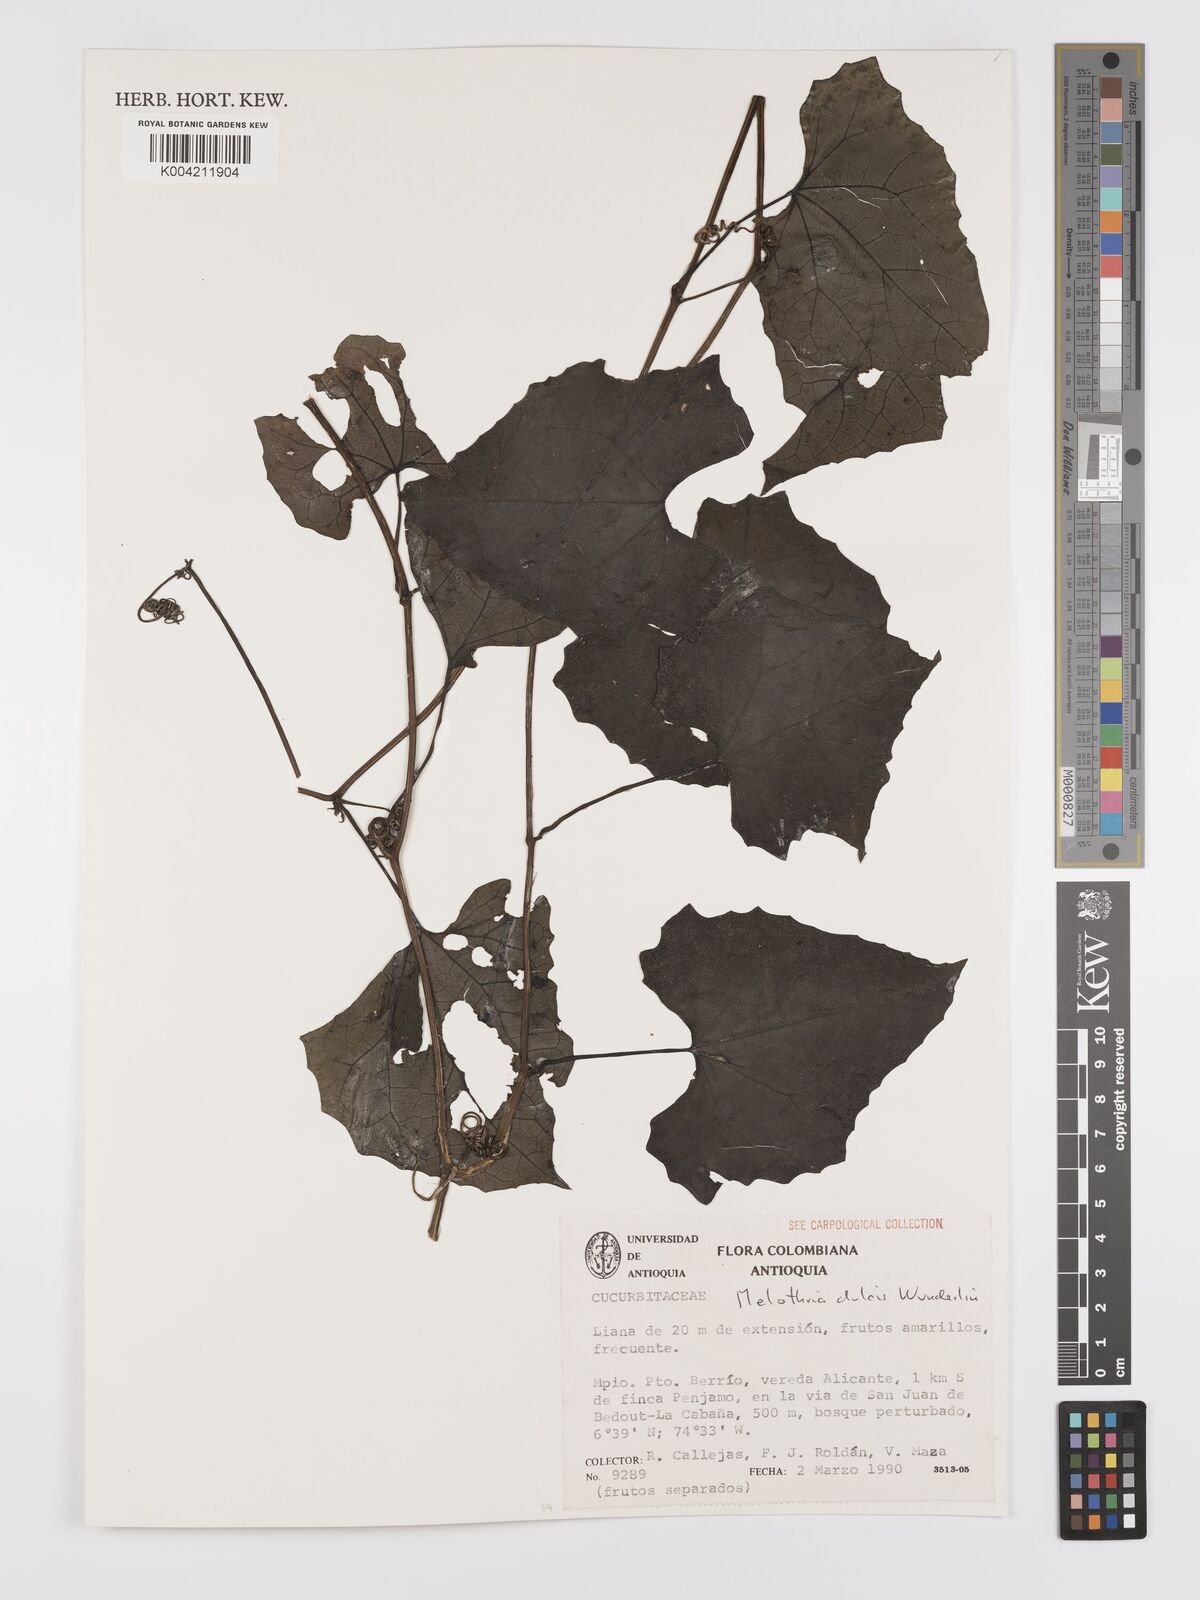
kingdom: Plantae
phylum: Tracheophyta
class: Magnoliopsida
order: Cucurbitales
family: Cucurbitaceae
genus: Melothria
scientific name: Melothria dulcis
